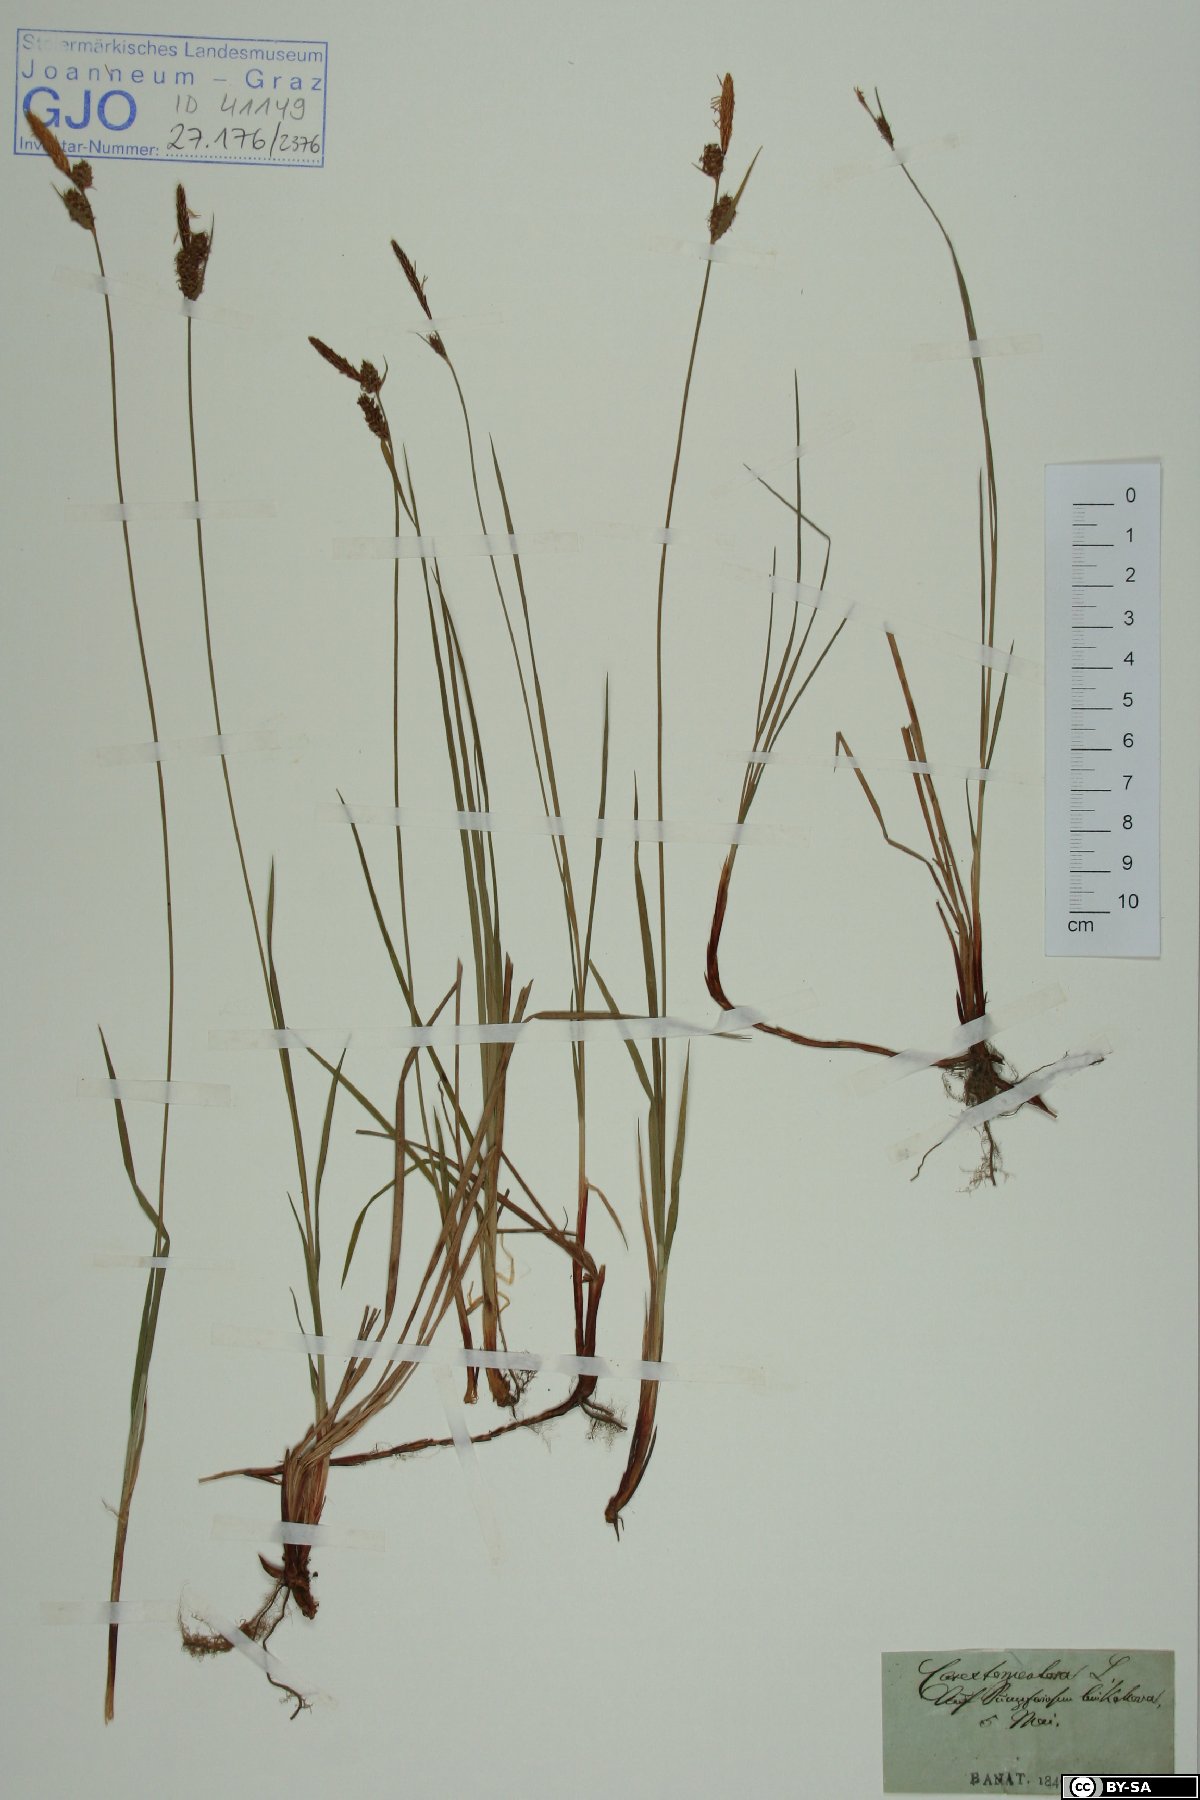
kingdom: Plantae
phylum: Tracheophyta
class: Liliopsida
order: Poales
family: Cyperaceae
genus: Carex
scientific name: Carex tomentosa
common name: Downy-fruited sedge
